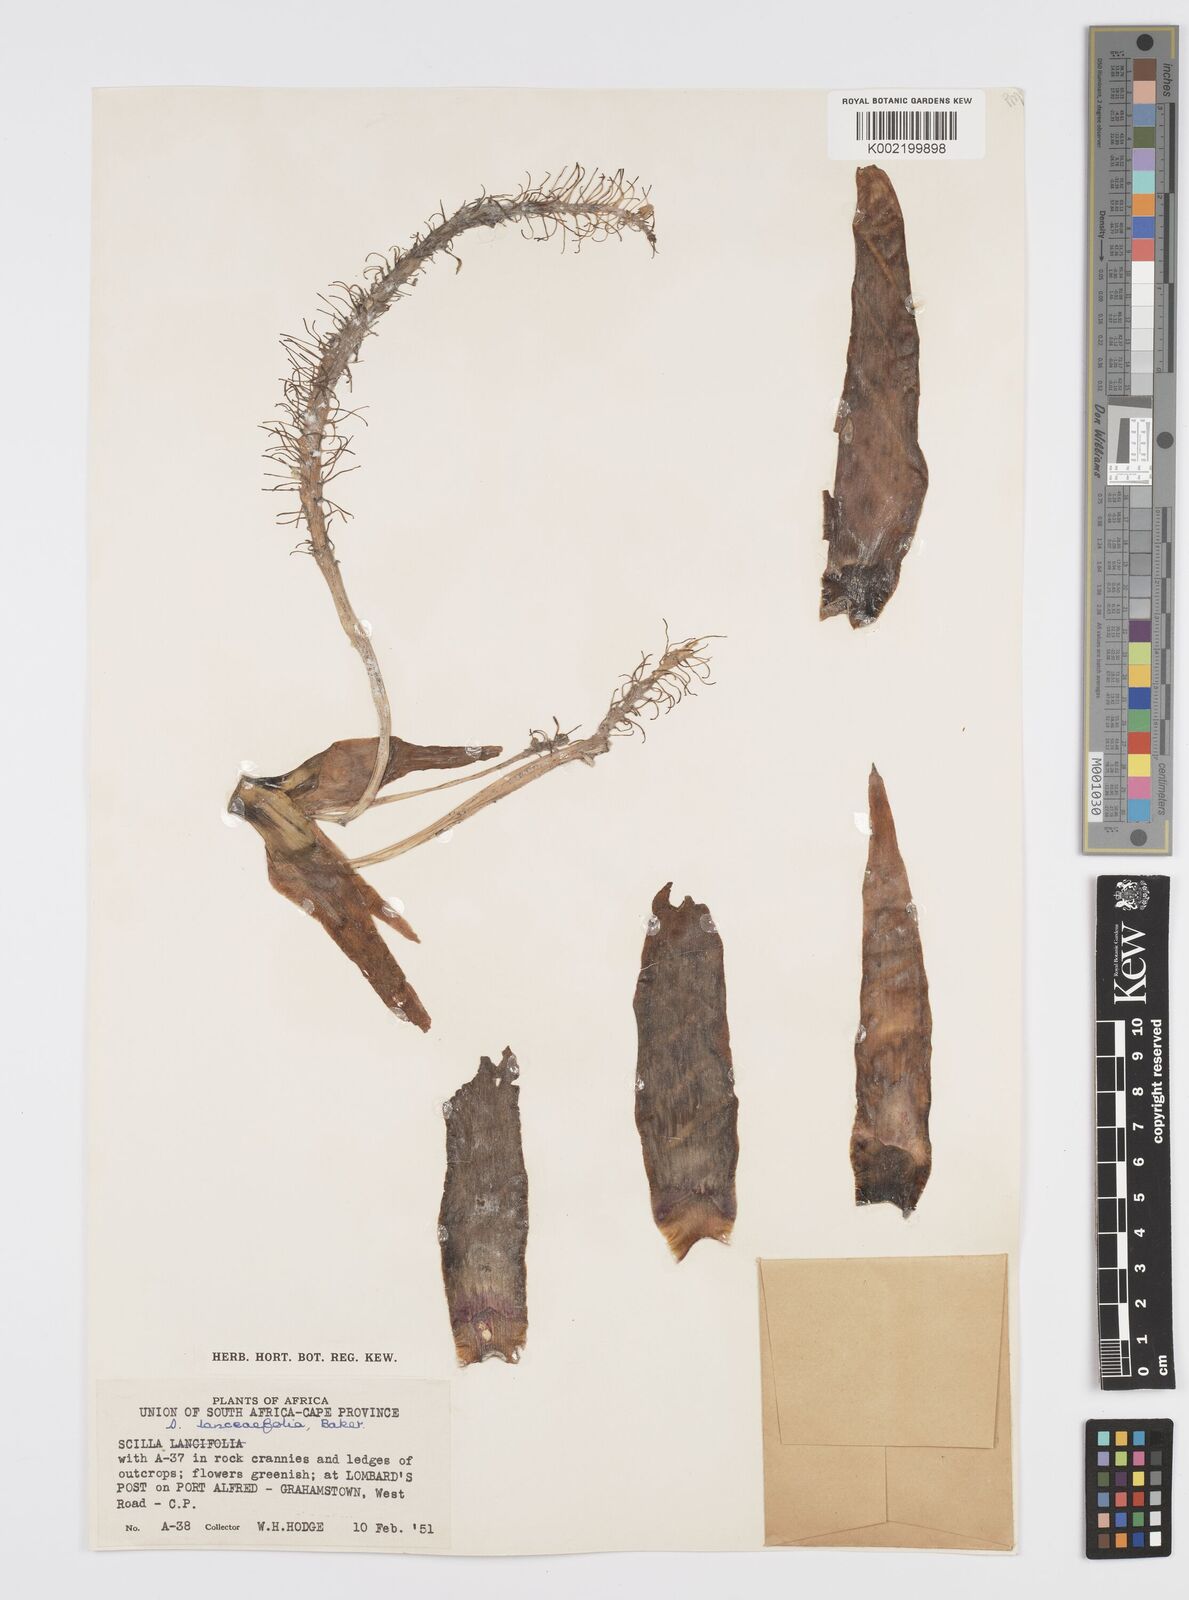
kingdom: Plantae
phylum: Tracheophyta
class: Liliopsida
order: Asparagales
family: Asparagaceae
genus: Ledebouria
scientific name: Ledebouria revoluta
